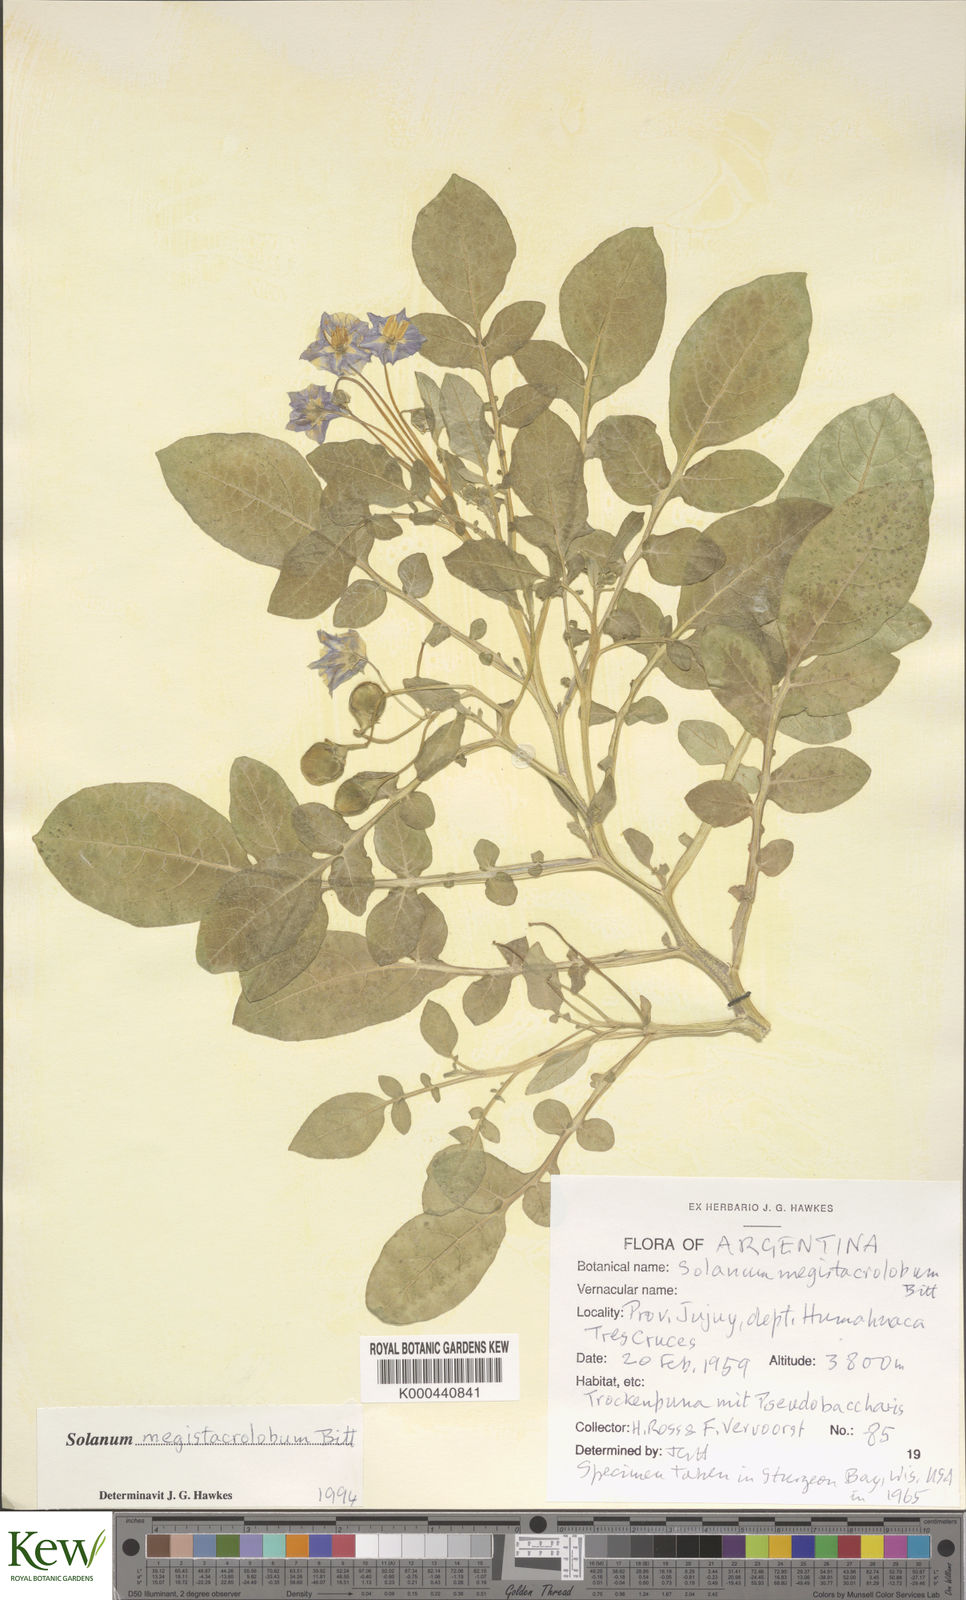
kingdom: Plantae
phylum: Tracheophyta
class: Magnoliopsida
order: Solanales
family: Solanaceae
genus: Solanum
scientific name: Solanum boliviense
